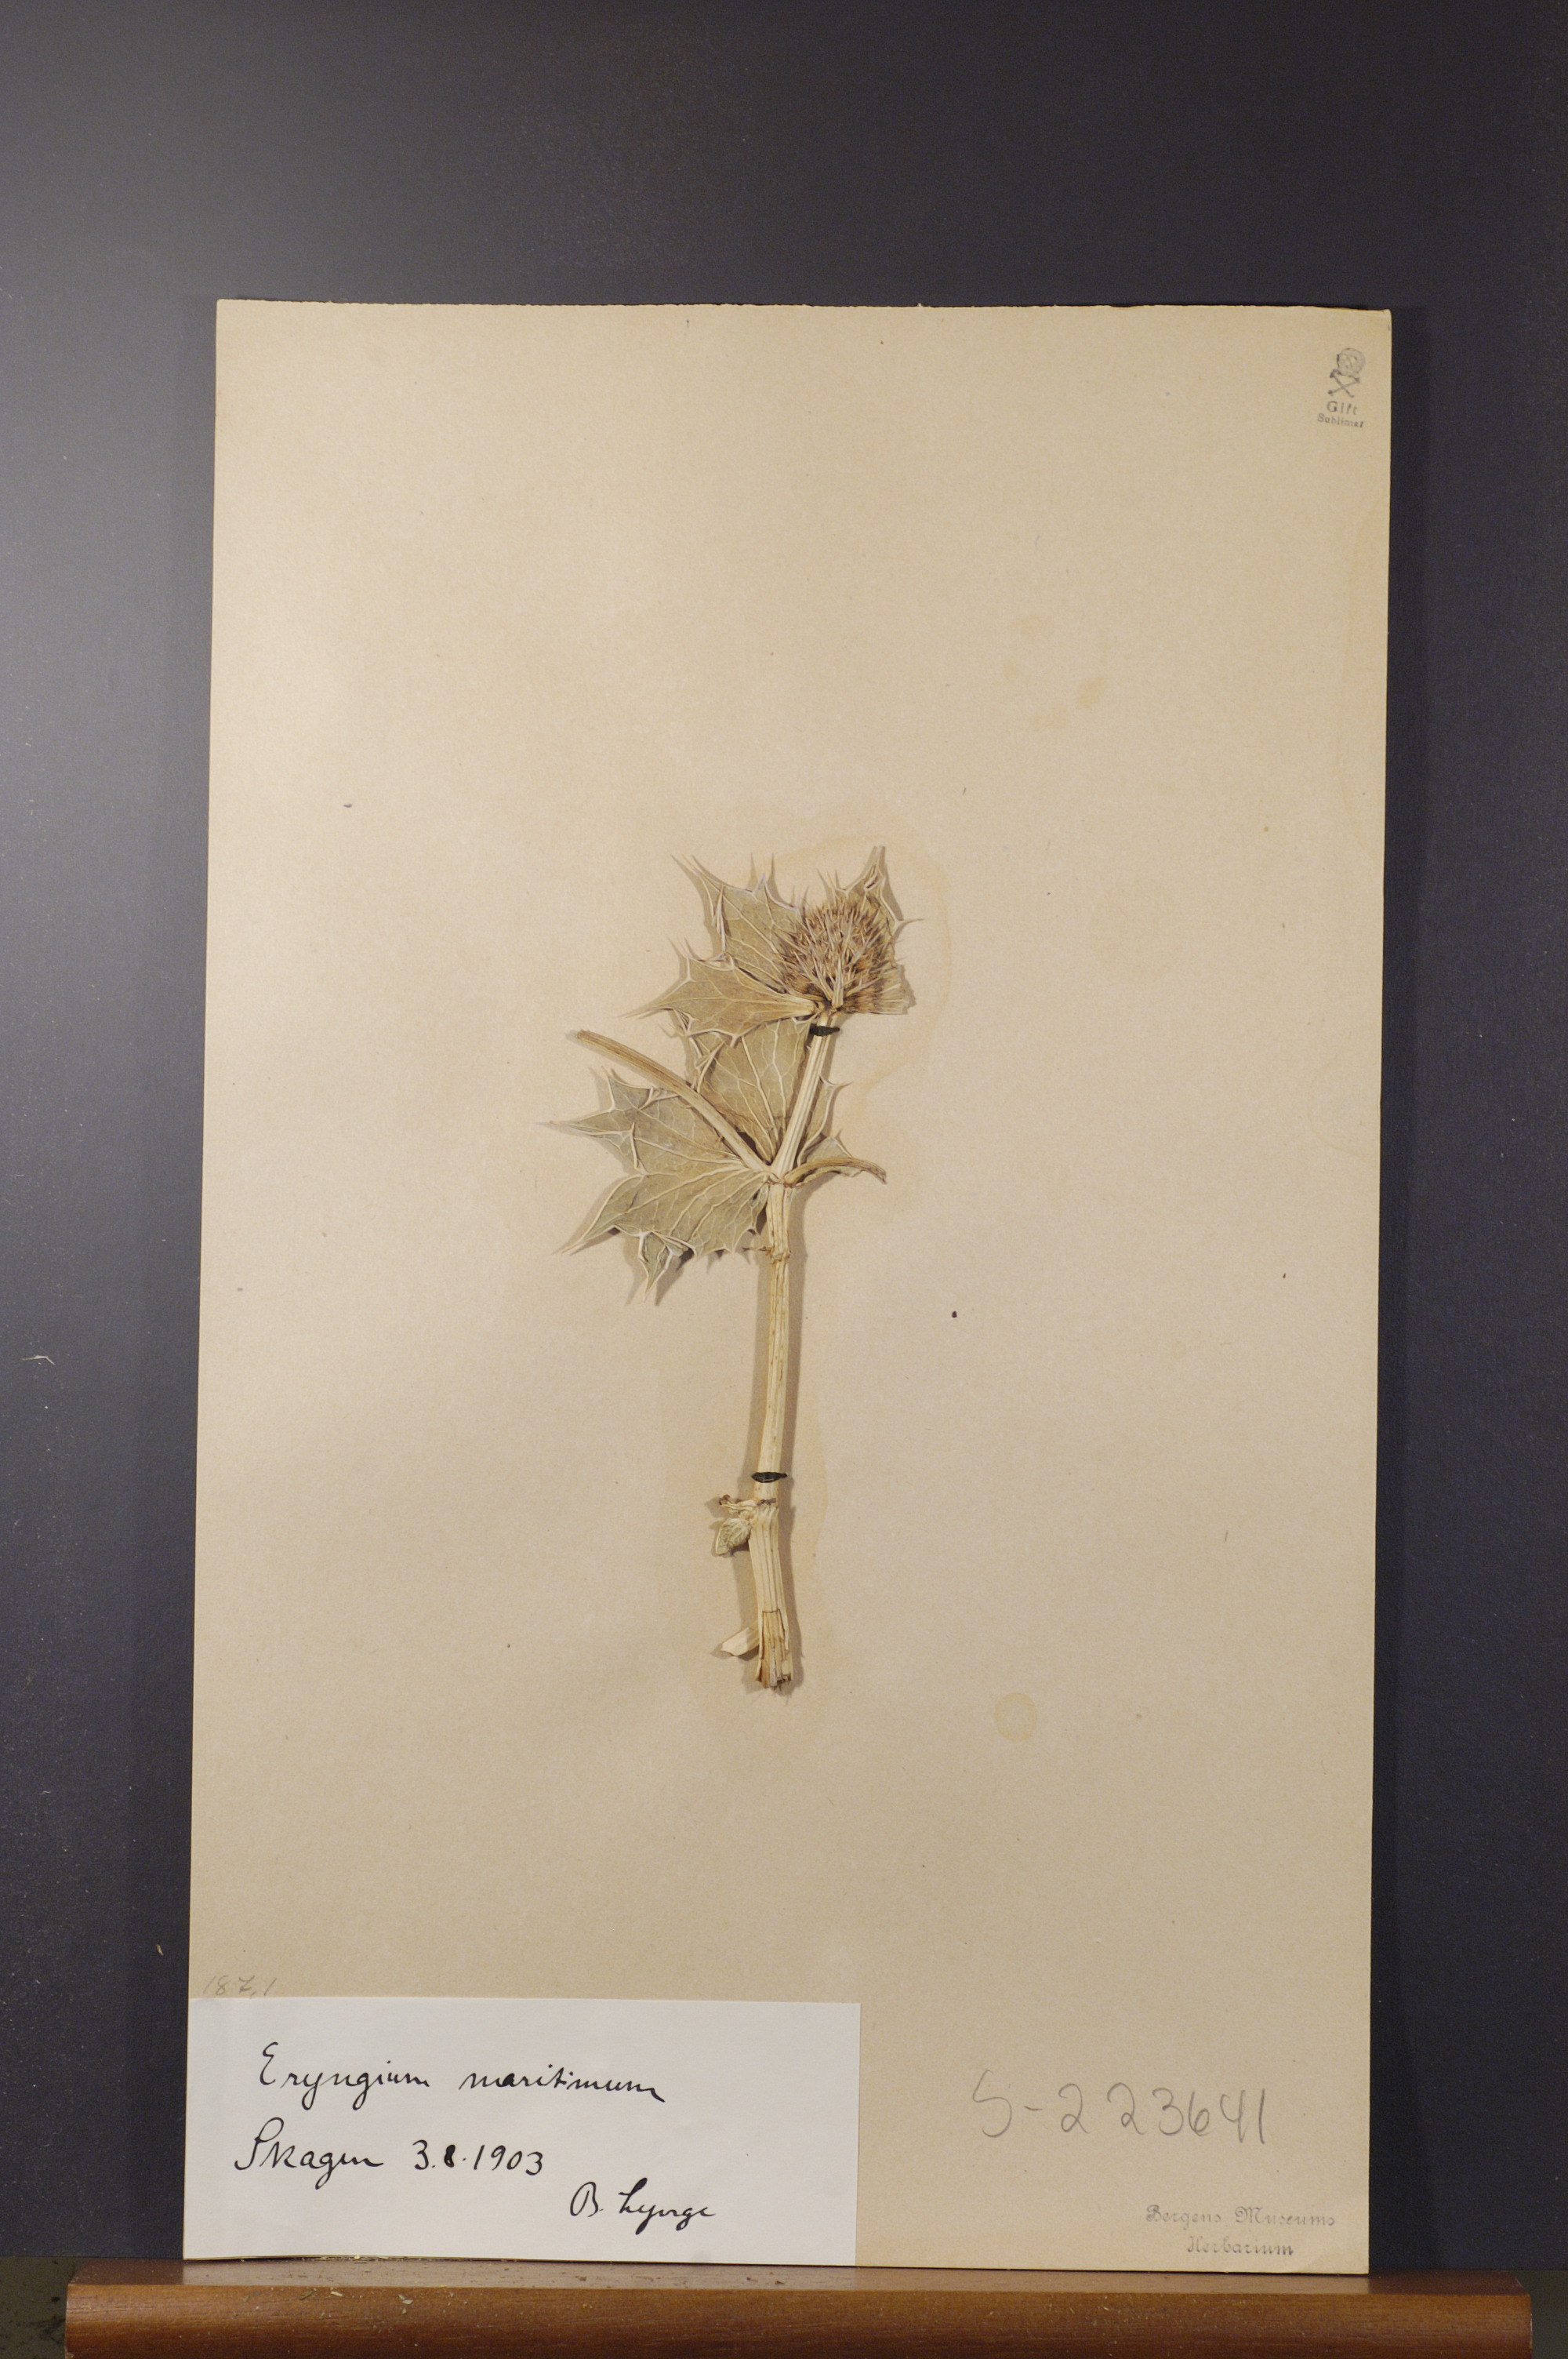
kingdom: Plantae
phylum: Tracheophyta
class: Magnoliopsida
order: Apiales
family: Apiaceae
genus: Eryngium
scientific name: Eryngium maritimum
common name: Sea-holly
